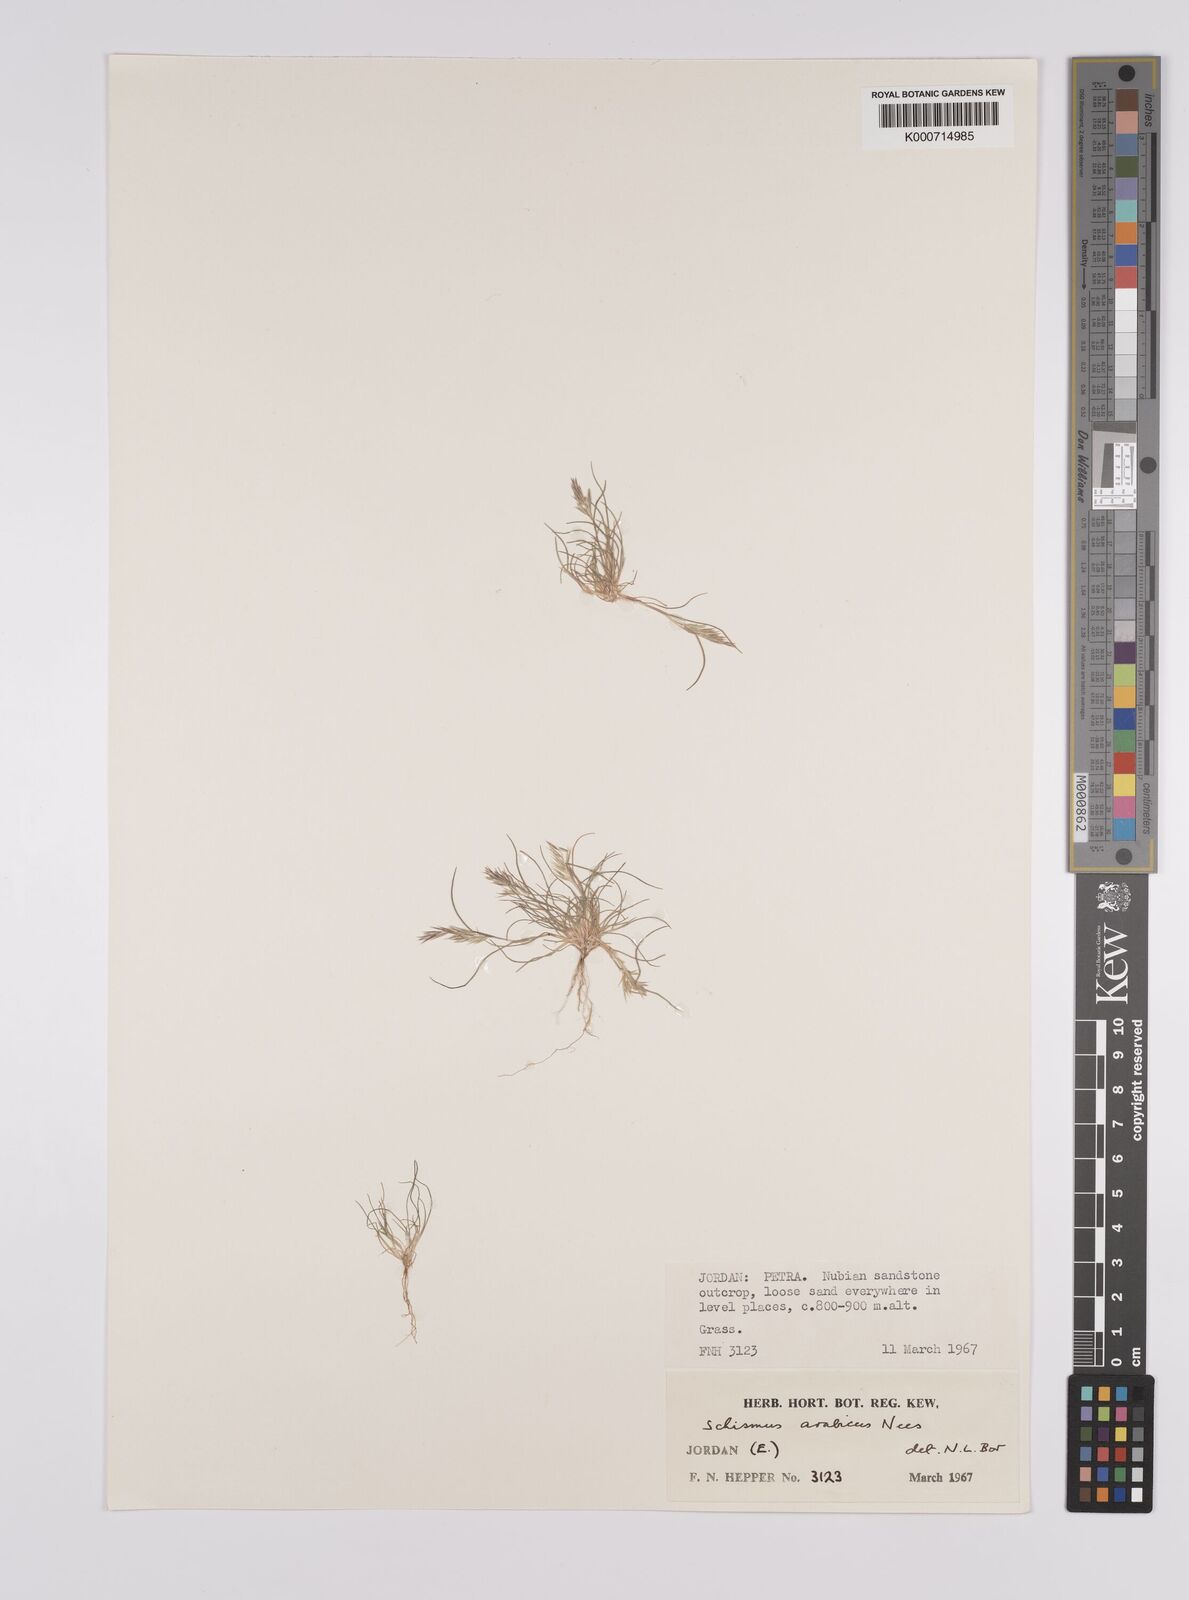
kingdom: Plantae
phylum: Tracheophyta
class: Liliopsida
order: Poales
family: Poaceae
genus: Schismus
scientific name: Schismus arabicus
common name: Arabian schismus
